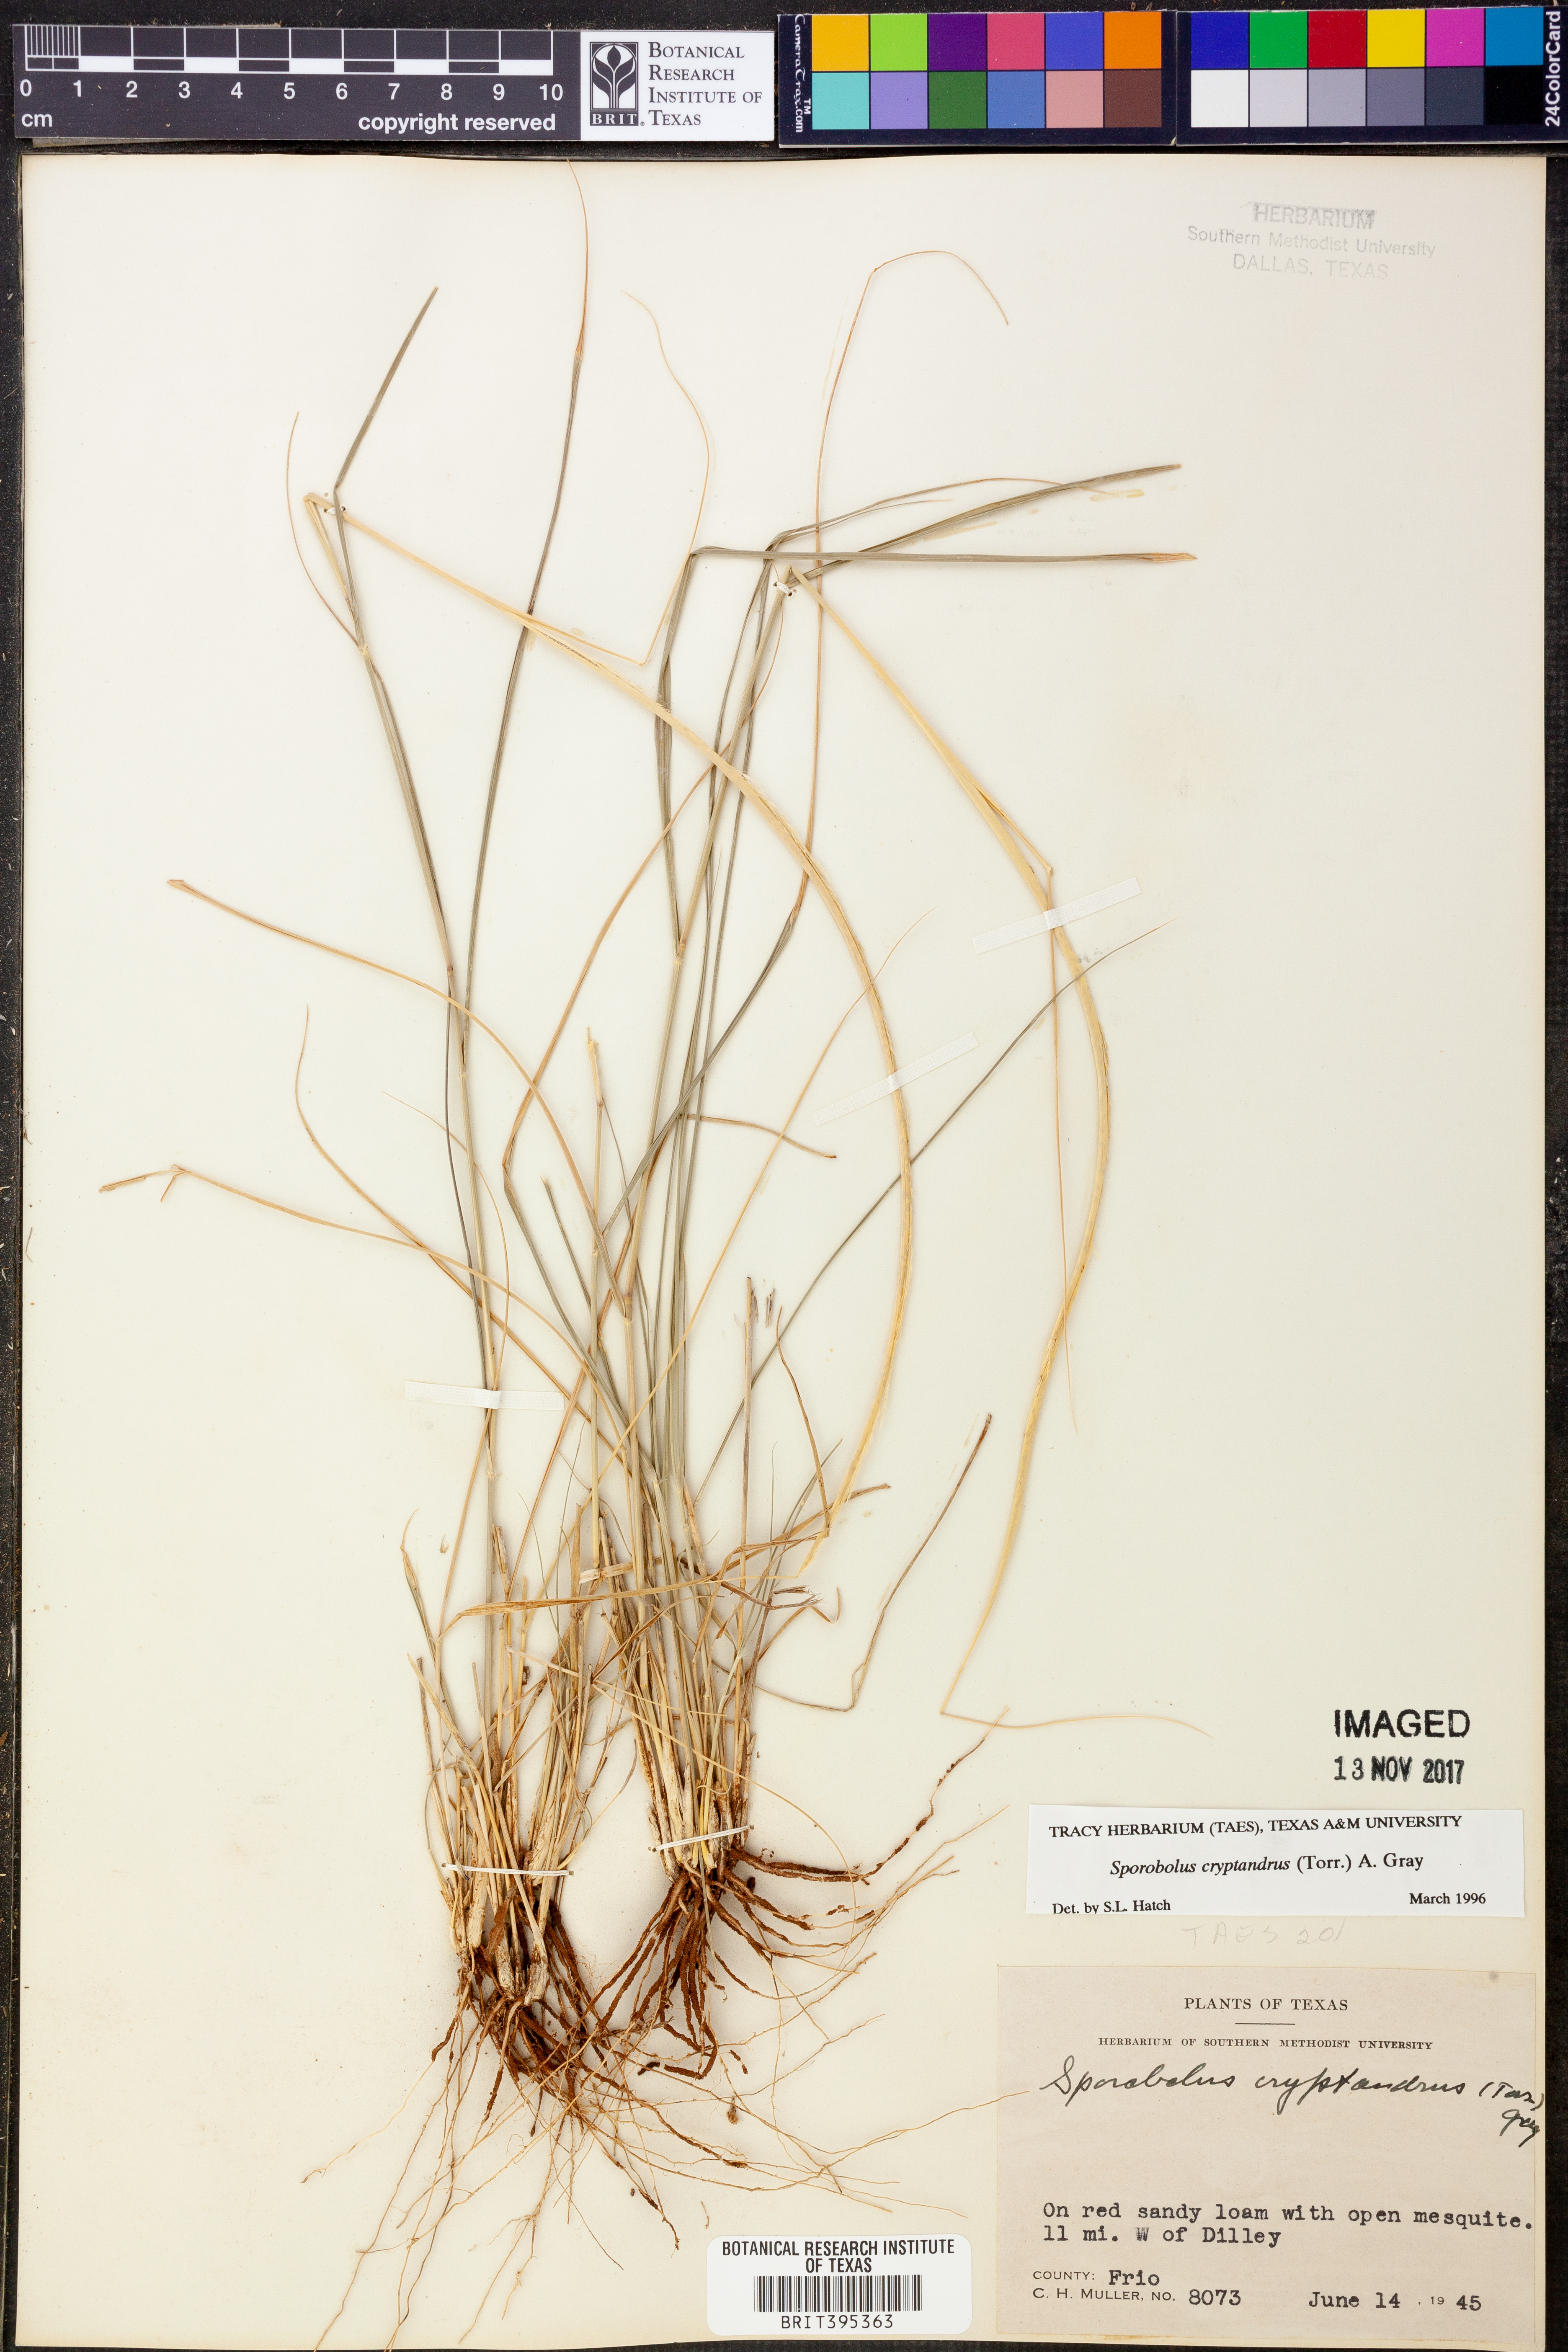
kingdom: Plantae
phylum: Tracheophyta
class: Liliopsida
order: Poales
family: Poaceae
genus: Sporobolus
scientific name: Sporobolus cryptandrus
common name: Sand dropseed
